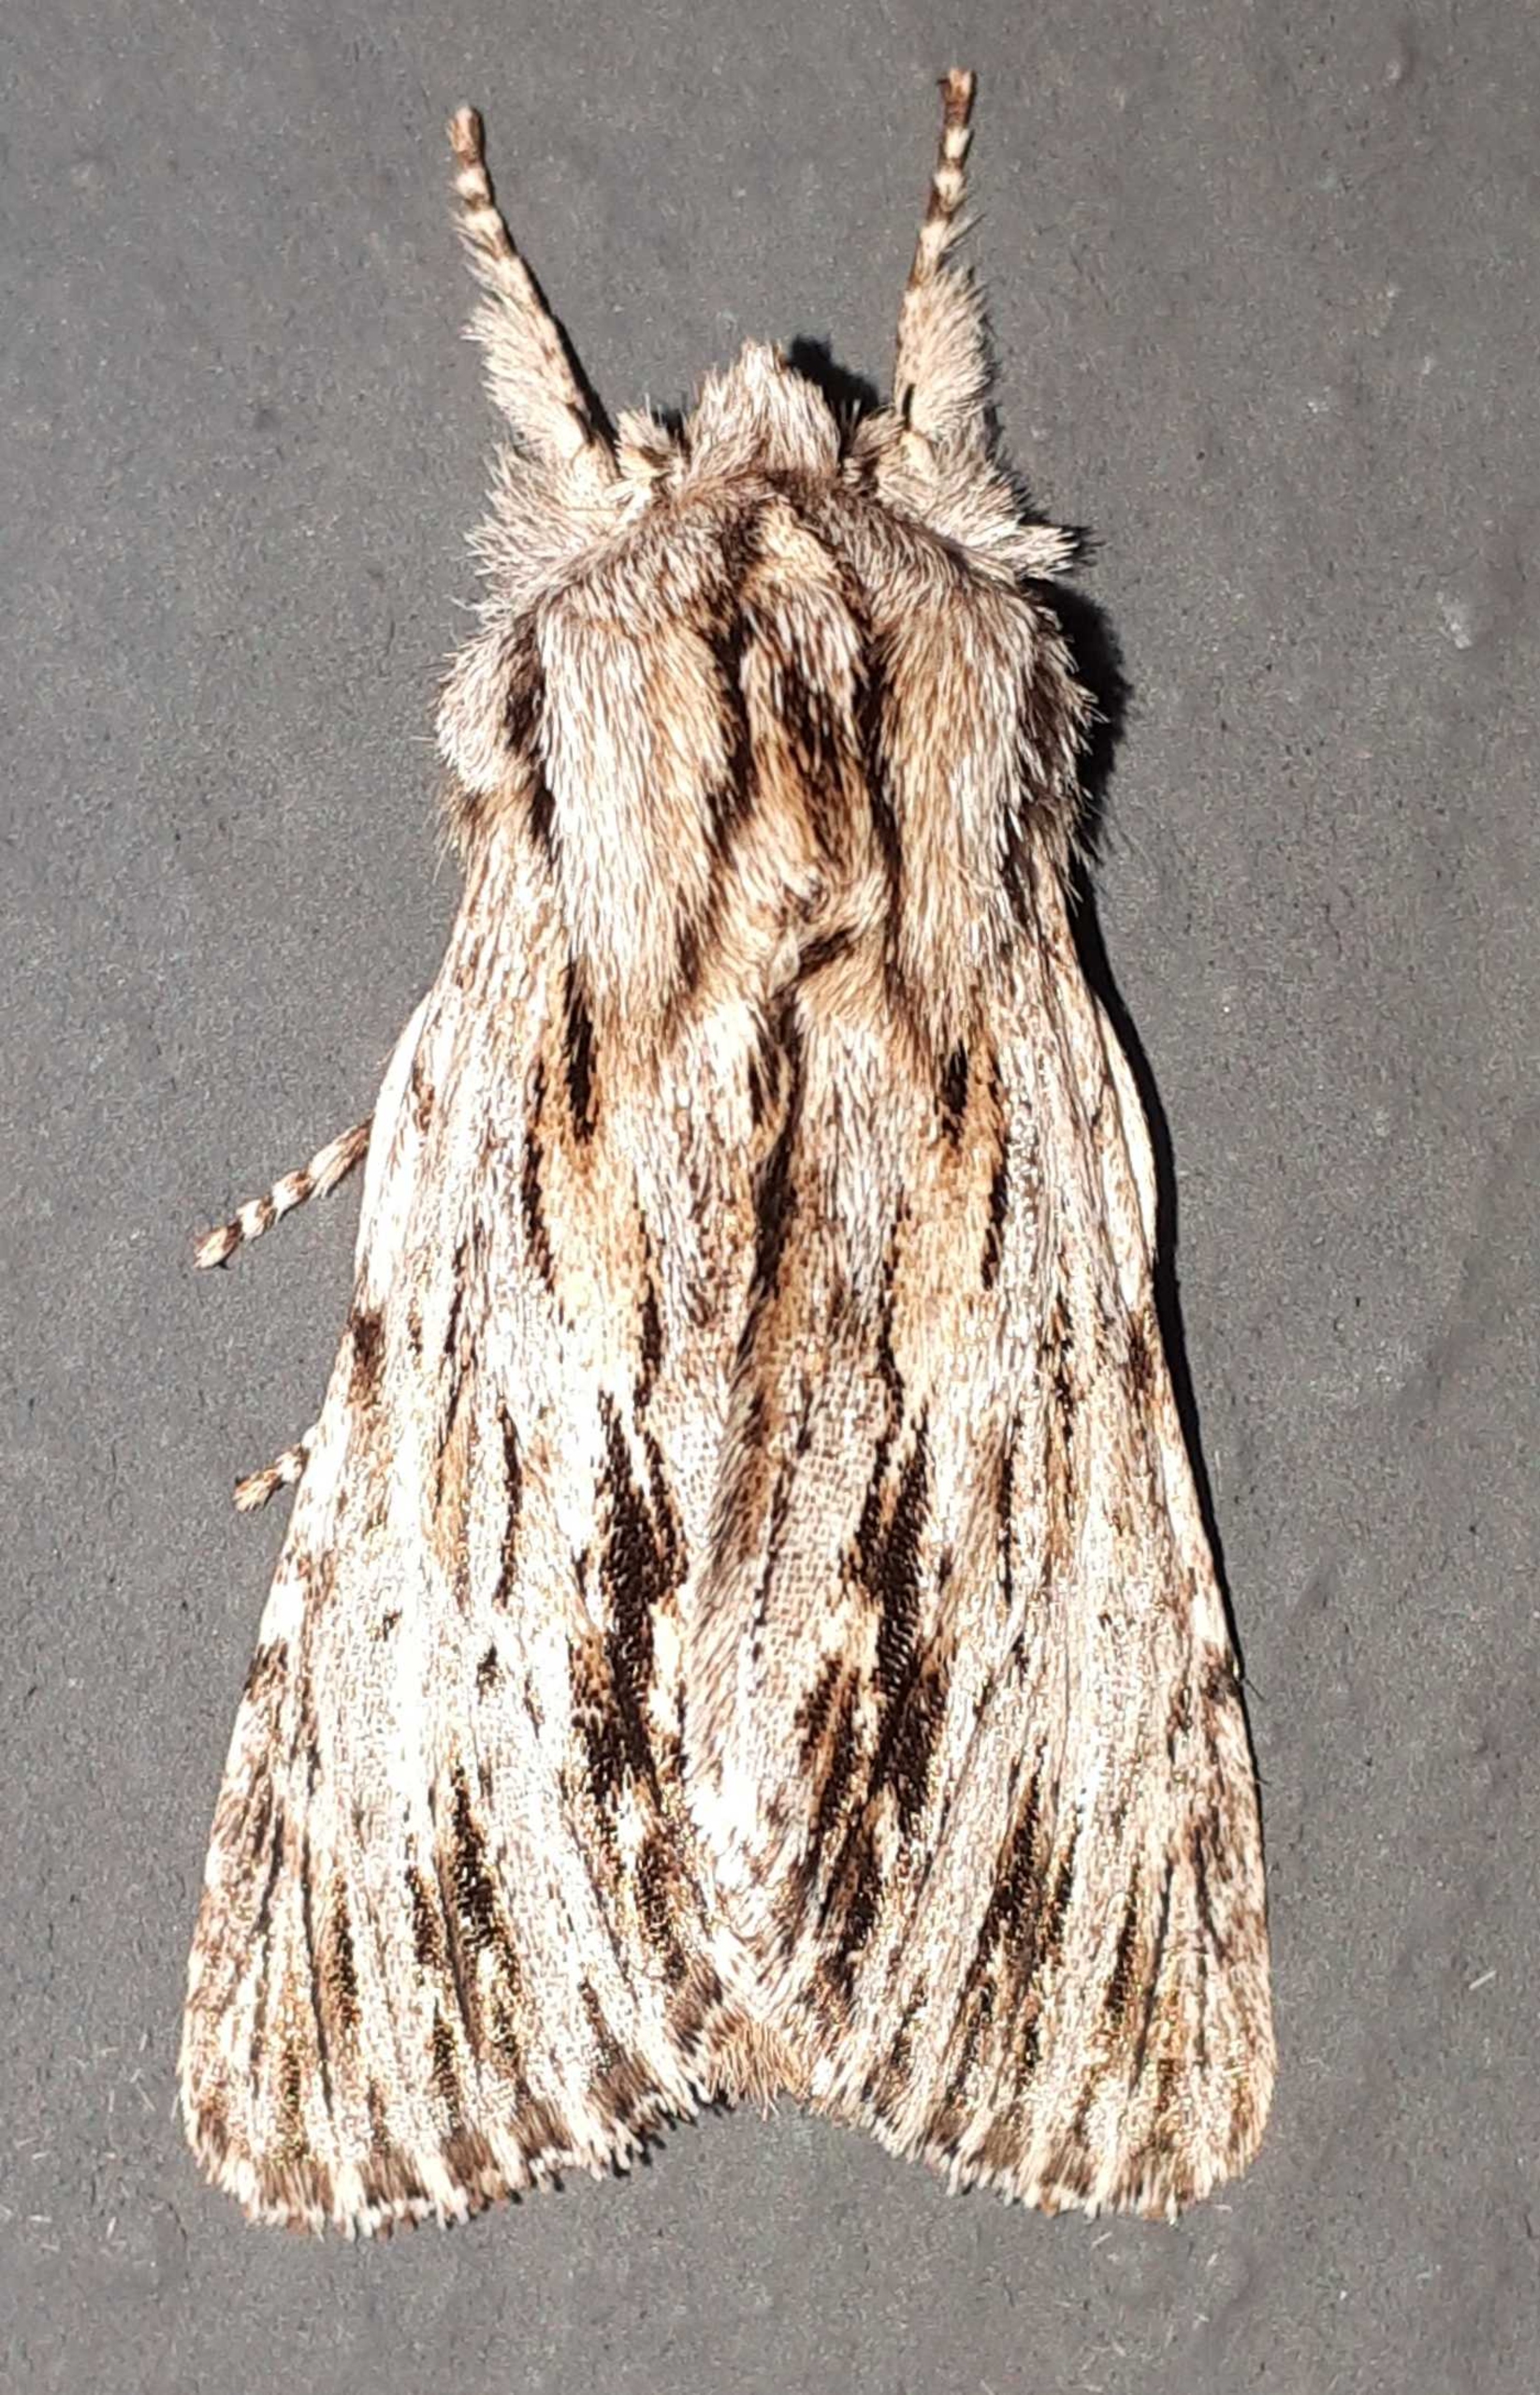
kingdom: Animalia
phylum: Arthropoda
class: Insecta
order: Lepidoptera
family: Noctuidae
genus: Asteroscopus
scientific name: Asteroscopus sphinx
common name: Sfinksugle
